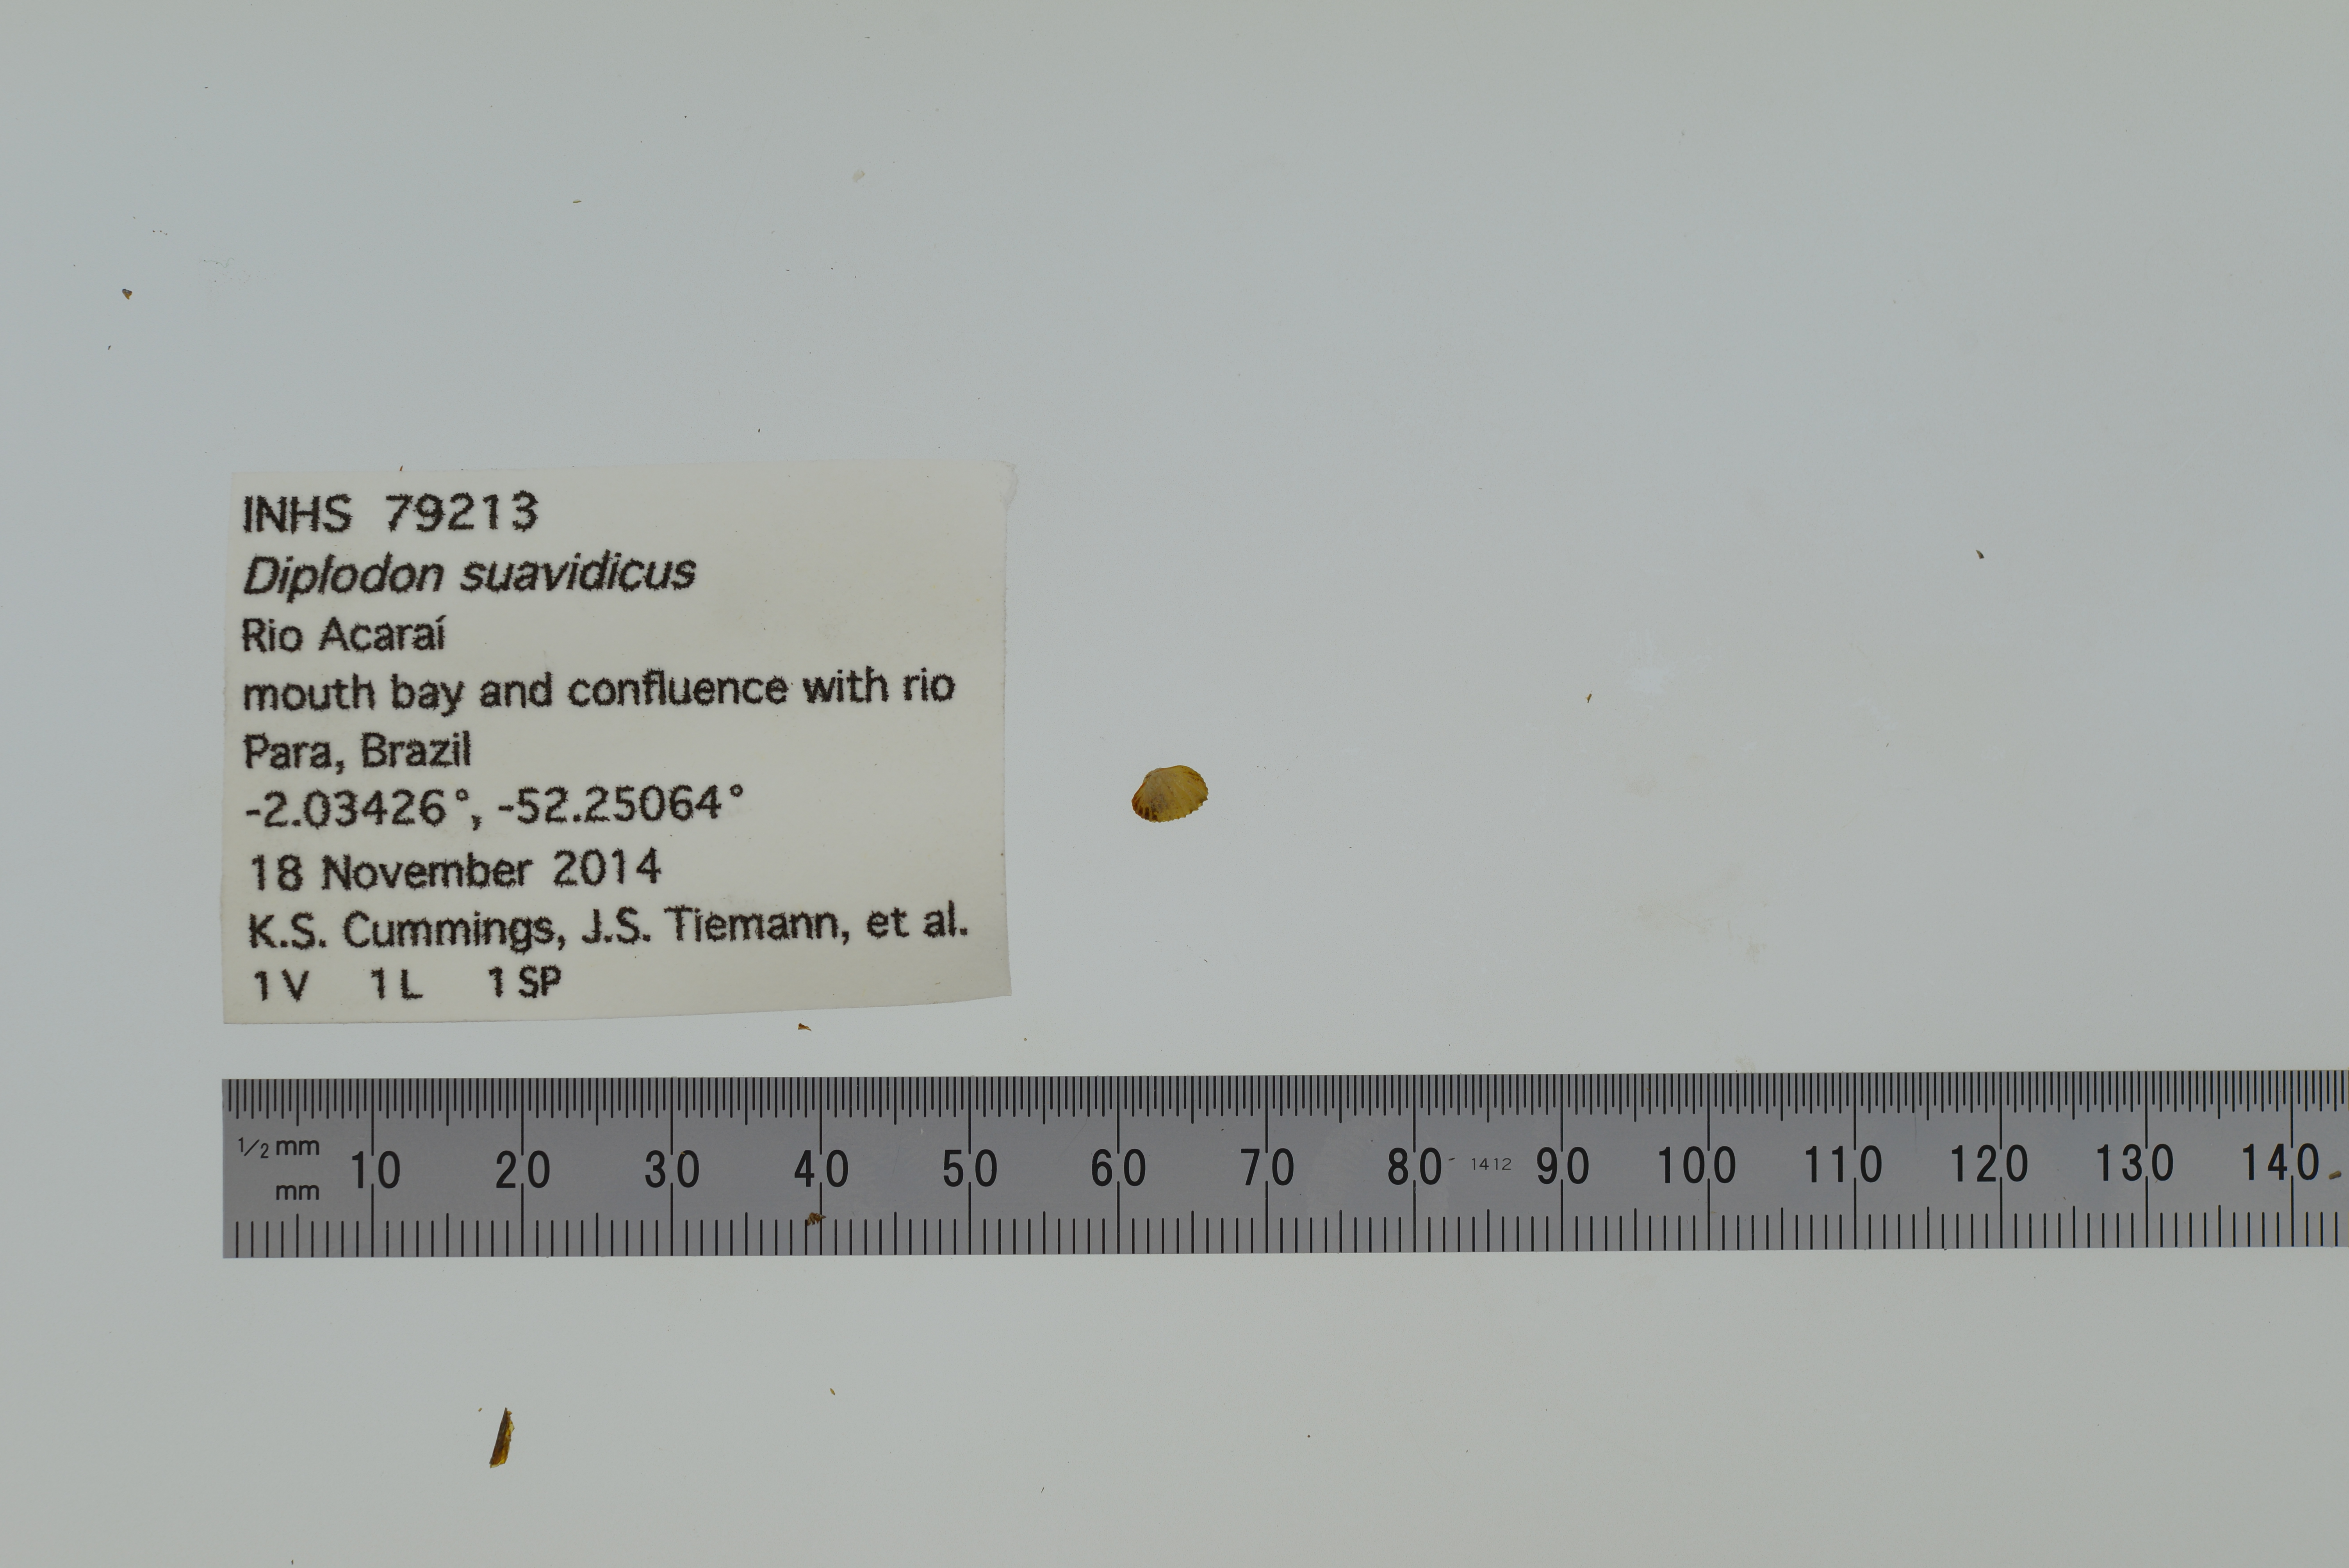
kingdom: Animalia
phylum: Mollusca
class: Bivalvia
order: Unionida
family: Hyriidae
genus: Diplodon
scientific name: Diplodon suavidicus
